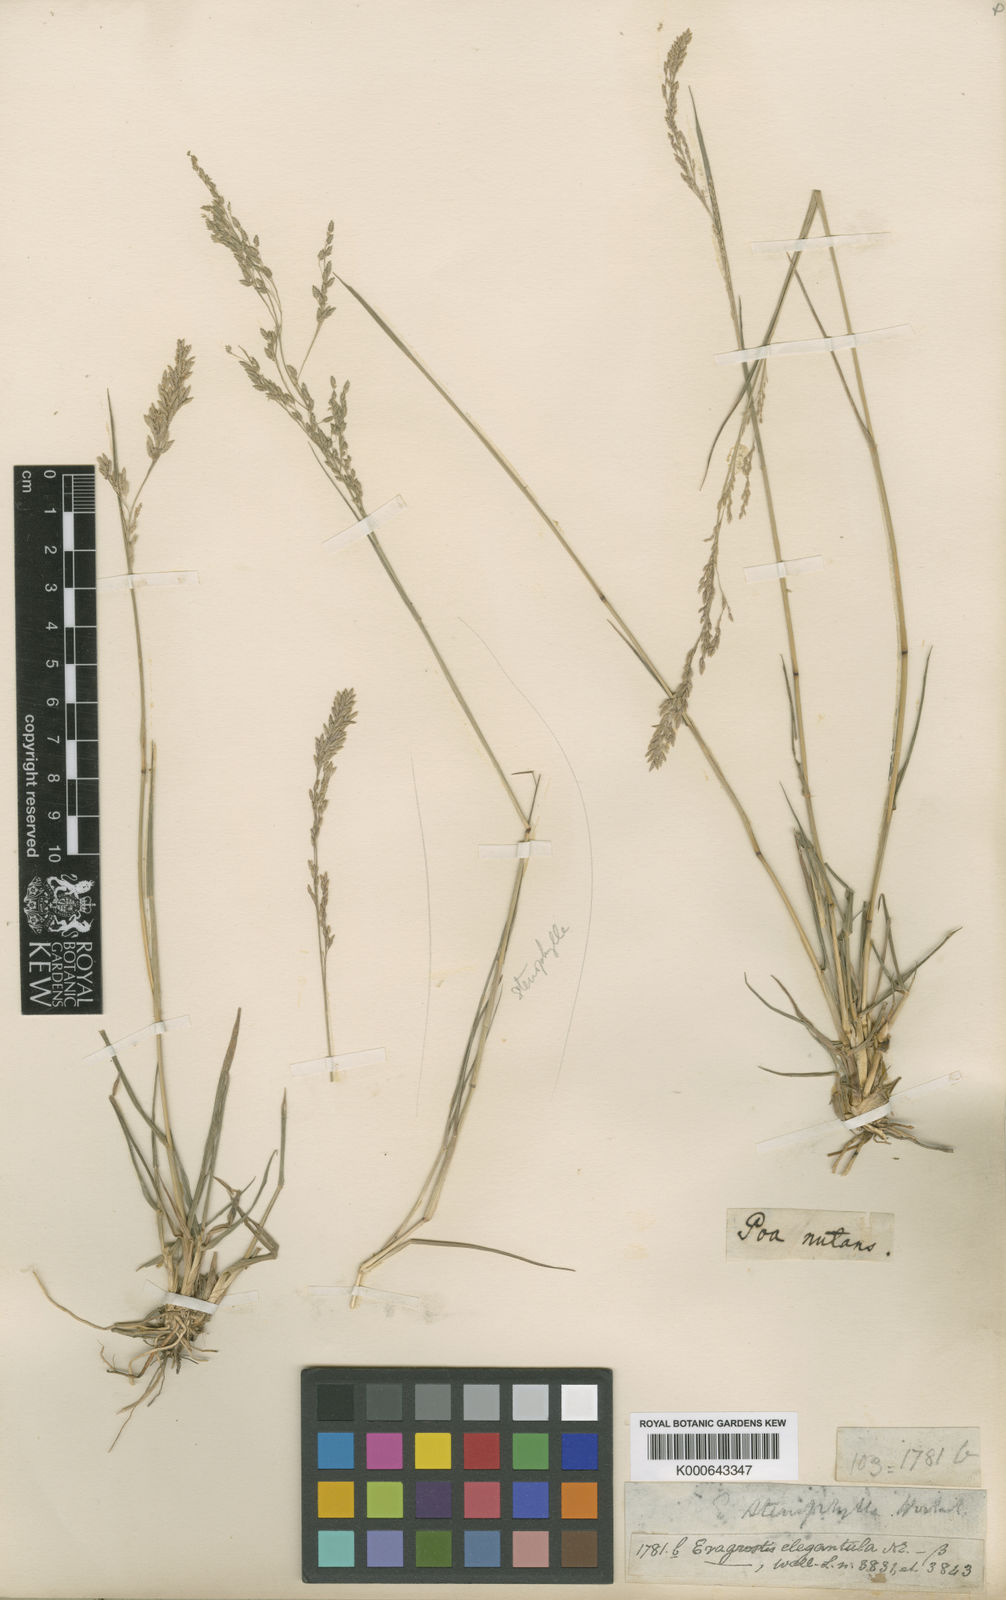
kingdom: Plantae
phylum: Tracheophyta
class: Liliopsida
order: Poales
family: Poaceae
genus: Eragrostis
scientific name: Eragrostis nutans
